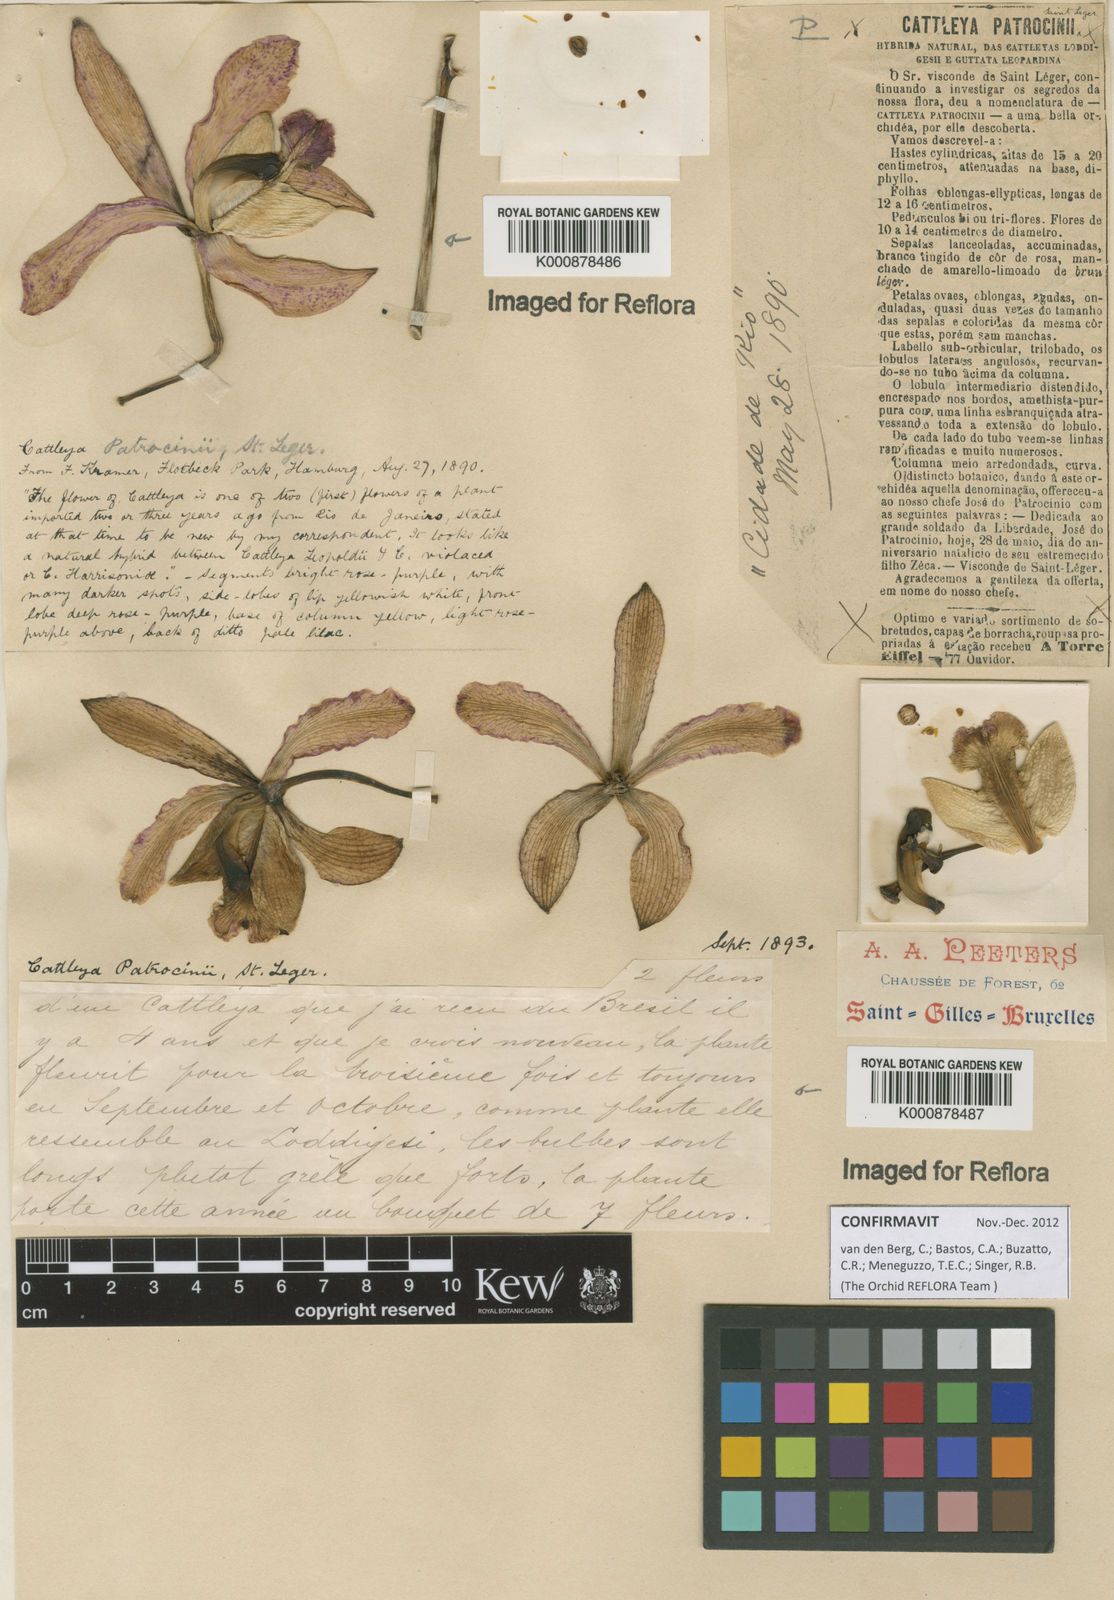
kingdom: Plantae
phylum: Tracheophyta
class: Liliopsida
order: Asparagales
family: Orchidaceae
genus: Cattleya
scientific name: Cattleya
